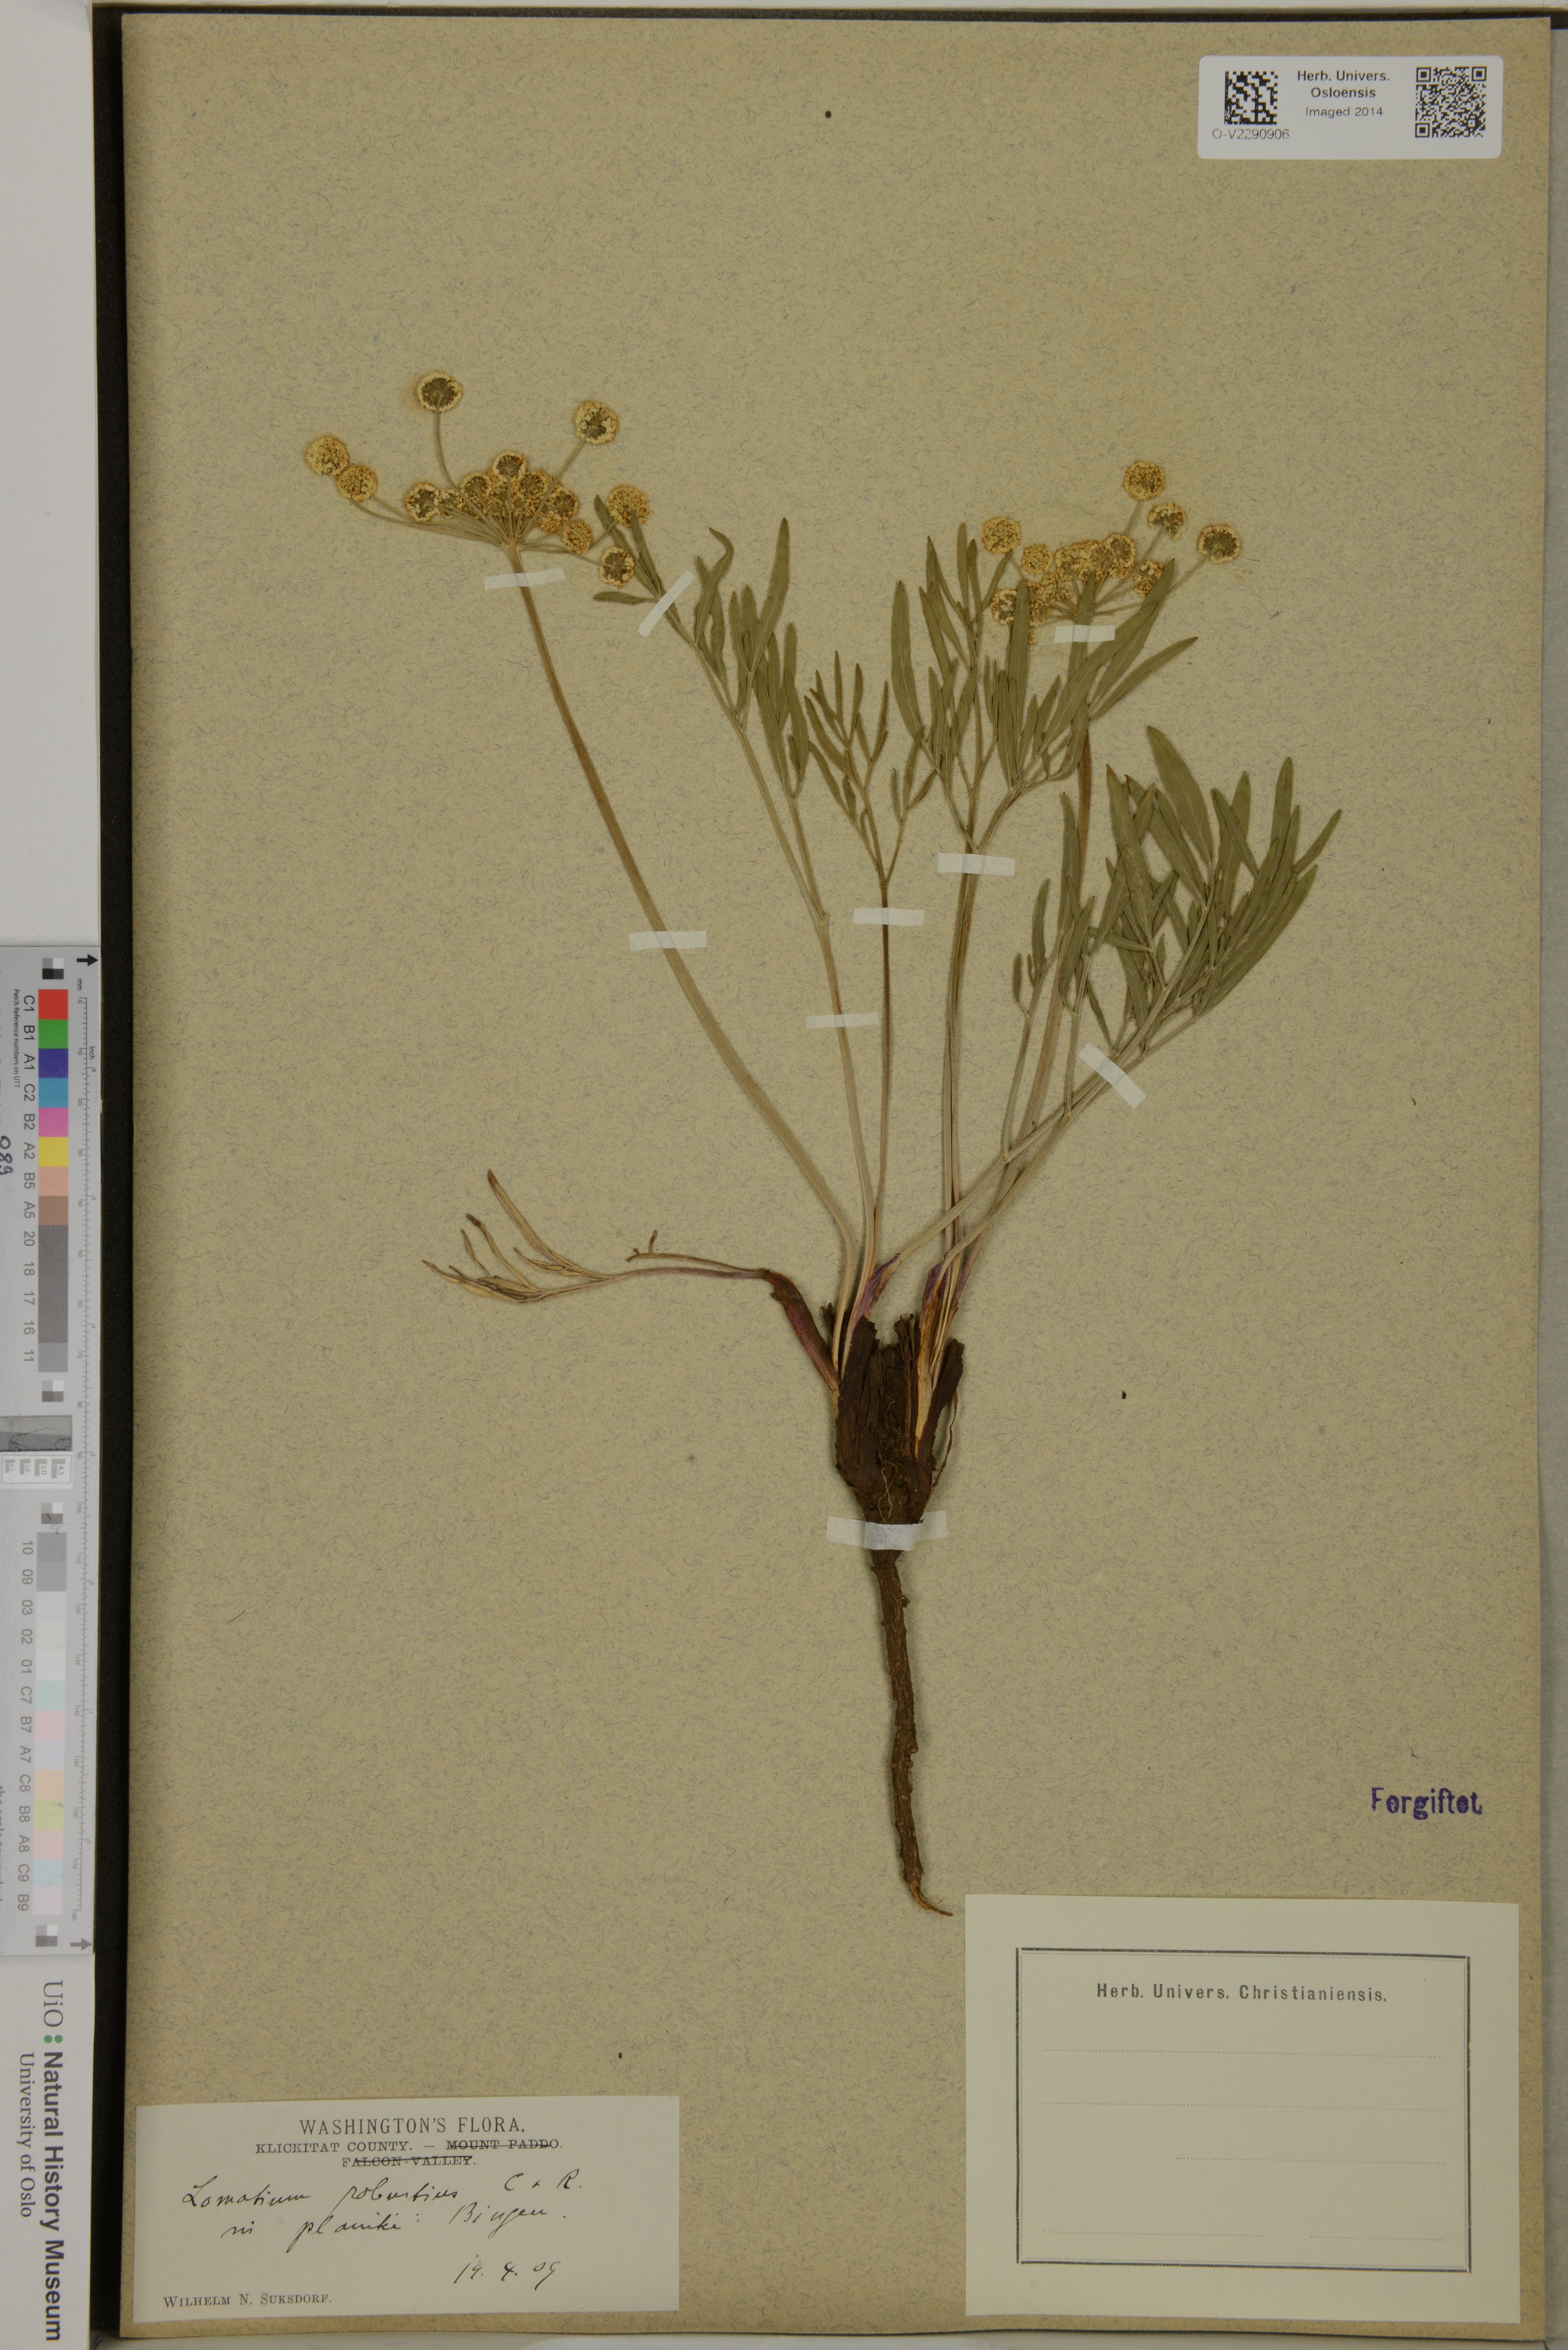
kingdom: Plantae
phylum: Tracheophyta
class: Magnoliopsida
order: Apiales
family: Apiaceae
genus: Lomatium
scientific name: Lomatium triternatum
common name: Ternate lomatium
